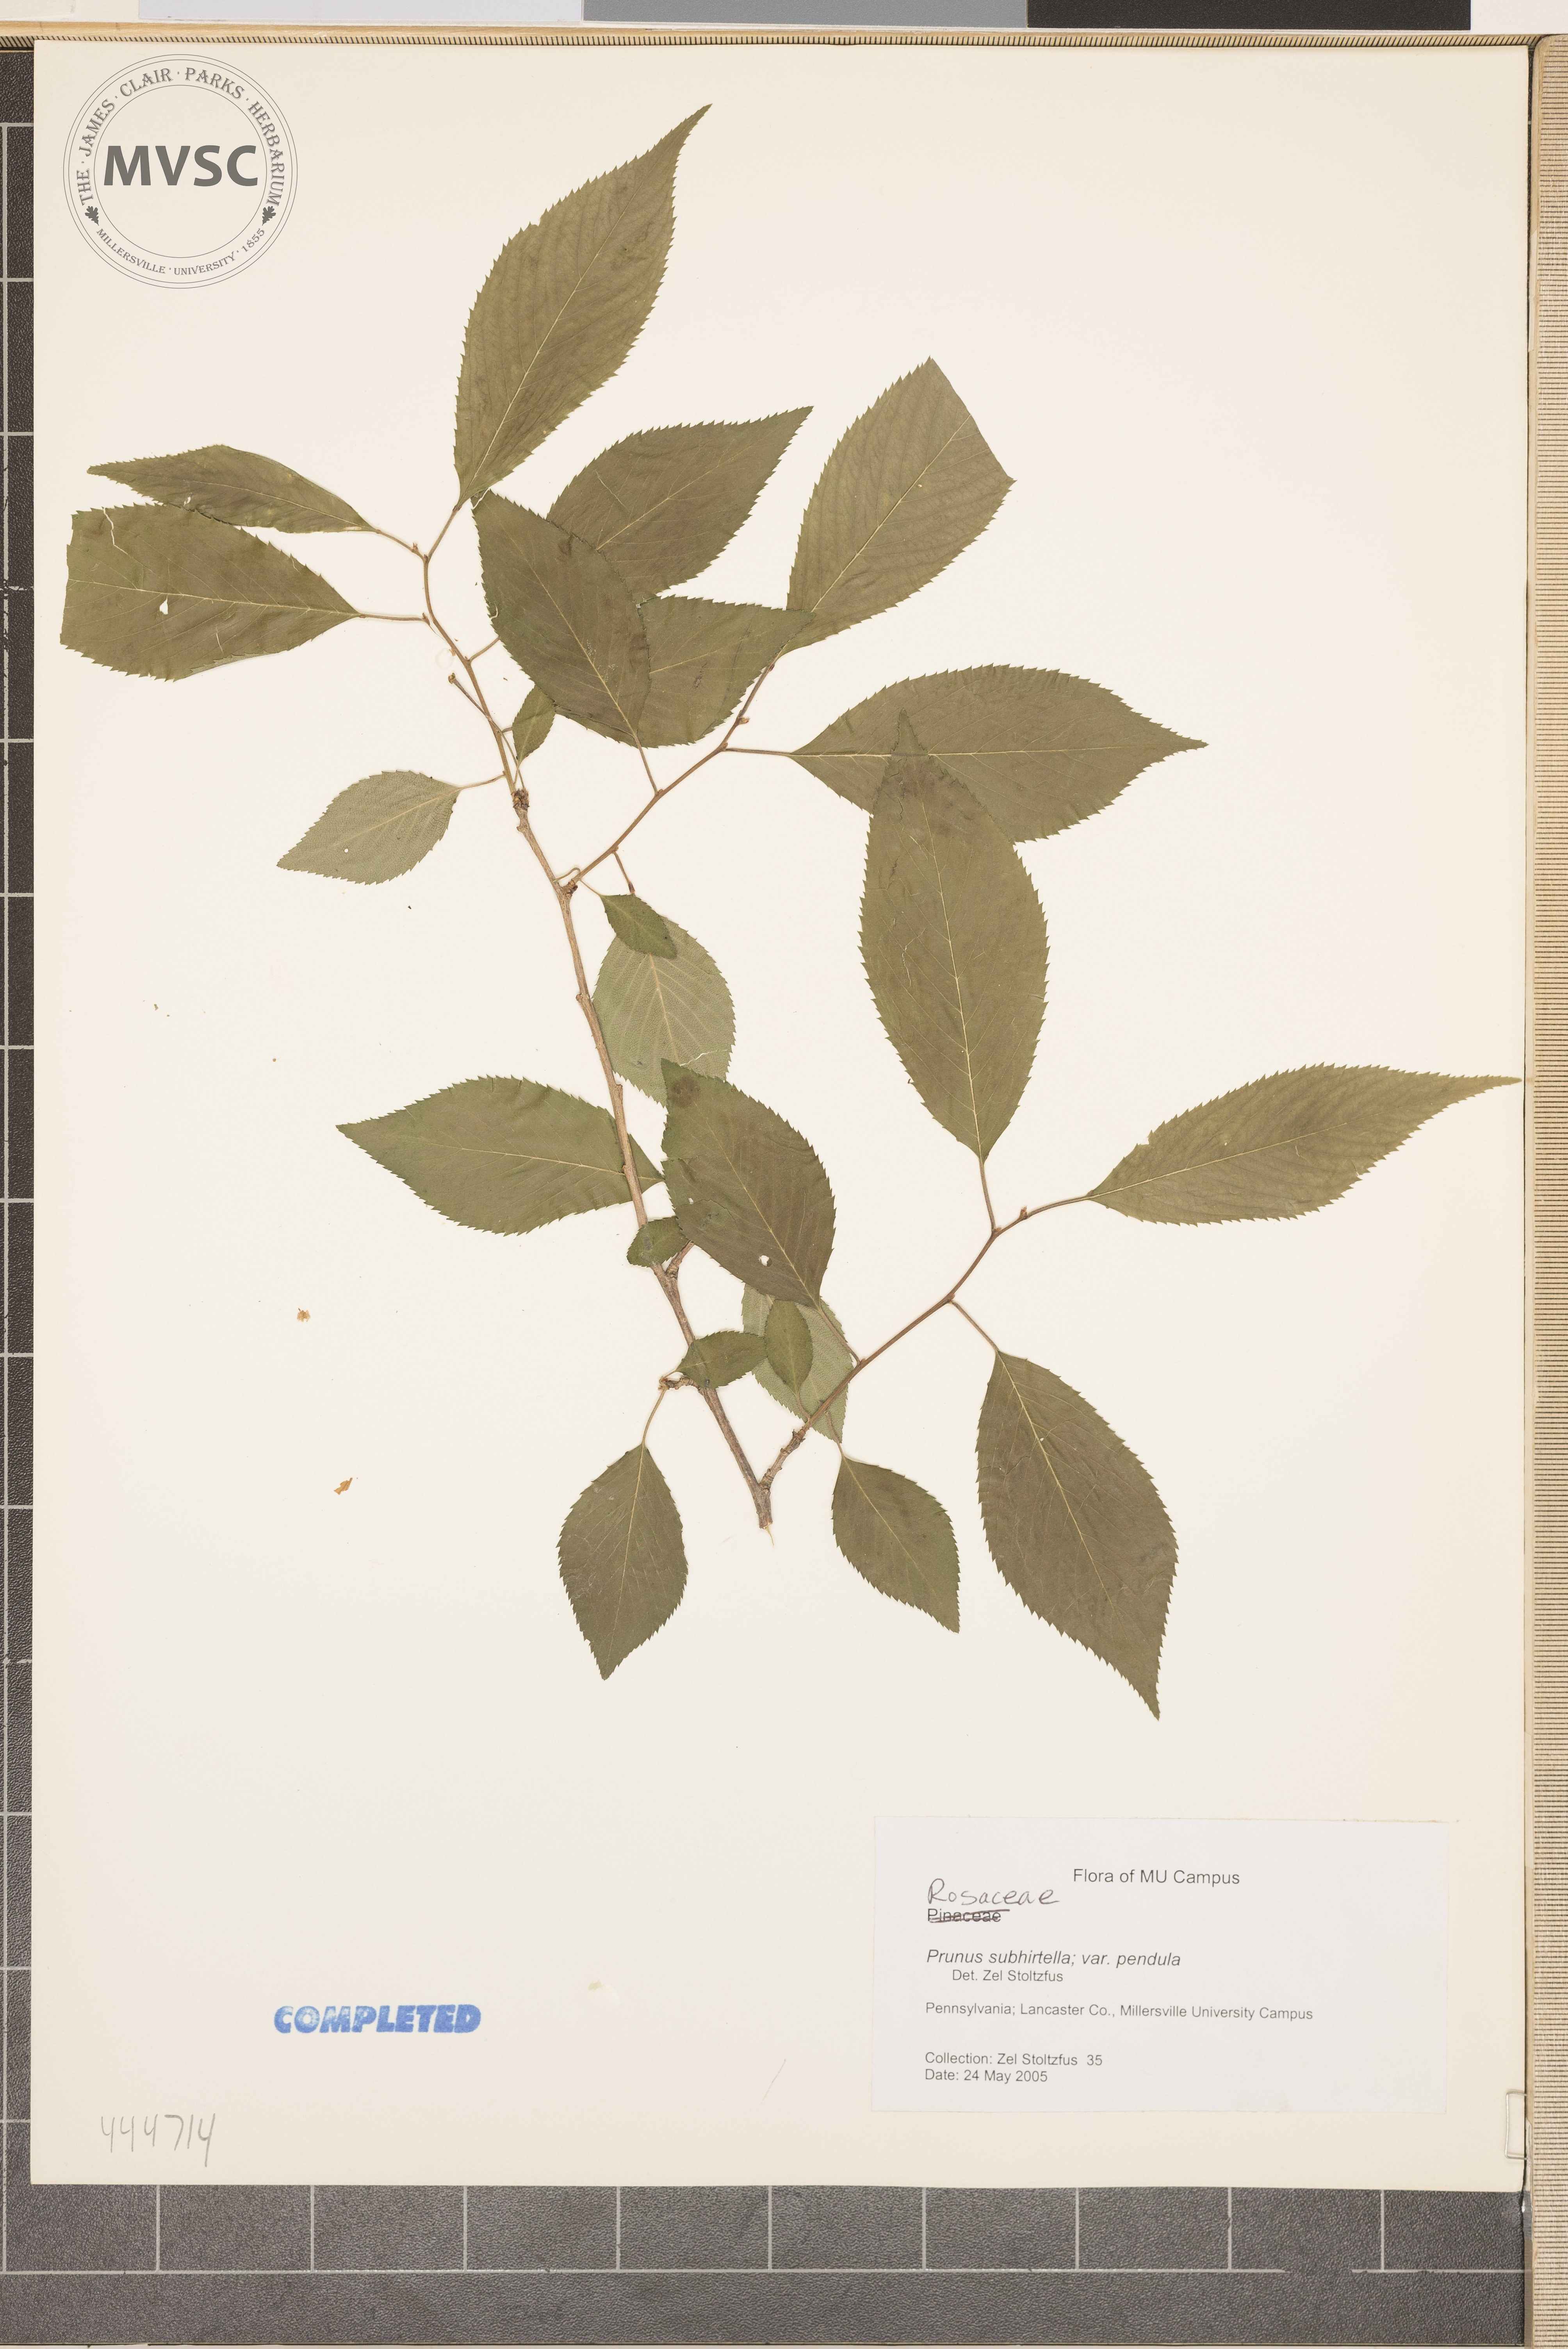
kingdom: Plantae
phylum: Tracheophyta
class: Magnoliopsida
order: Rosales
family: Rosaceae
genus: Prunus
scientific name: Prunus subhirtella
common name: Winter-flowering cherry
